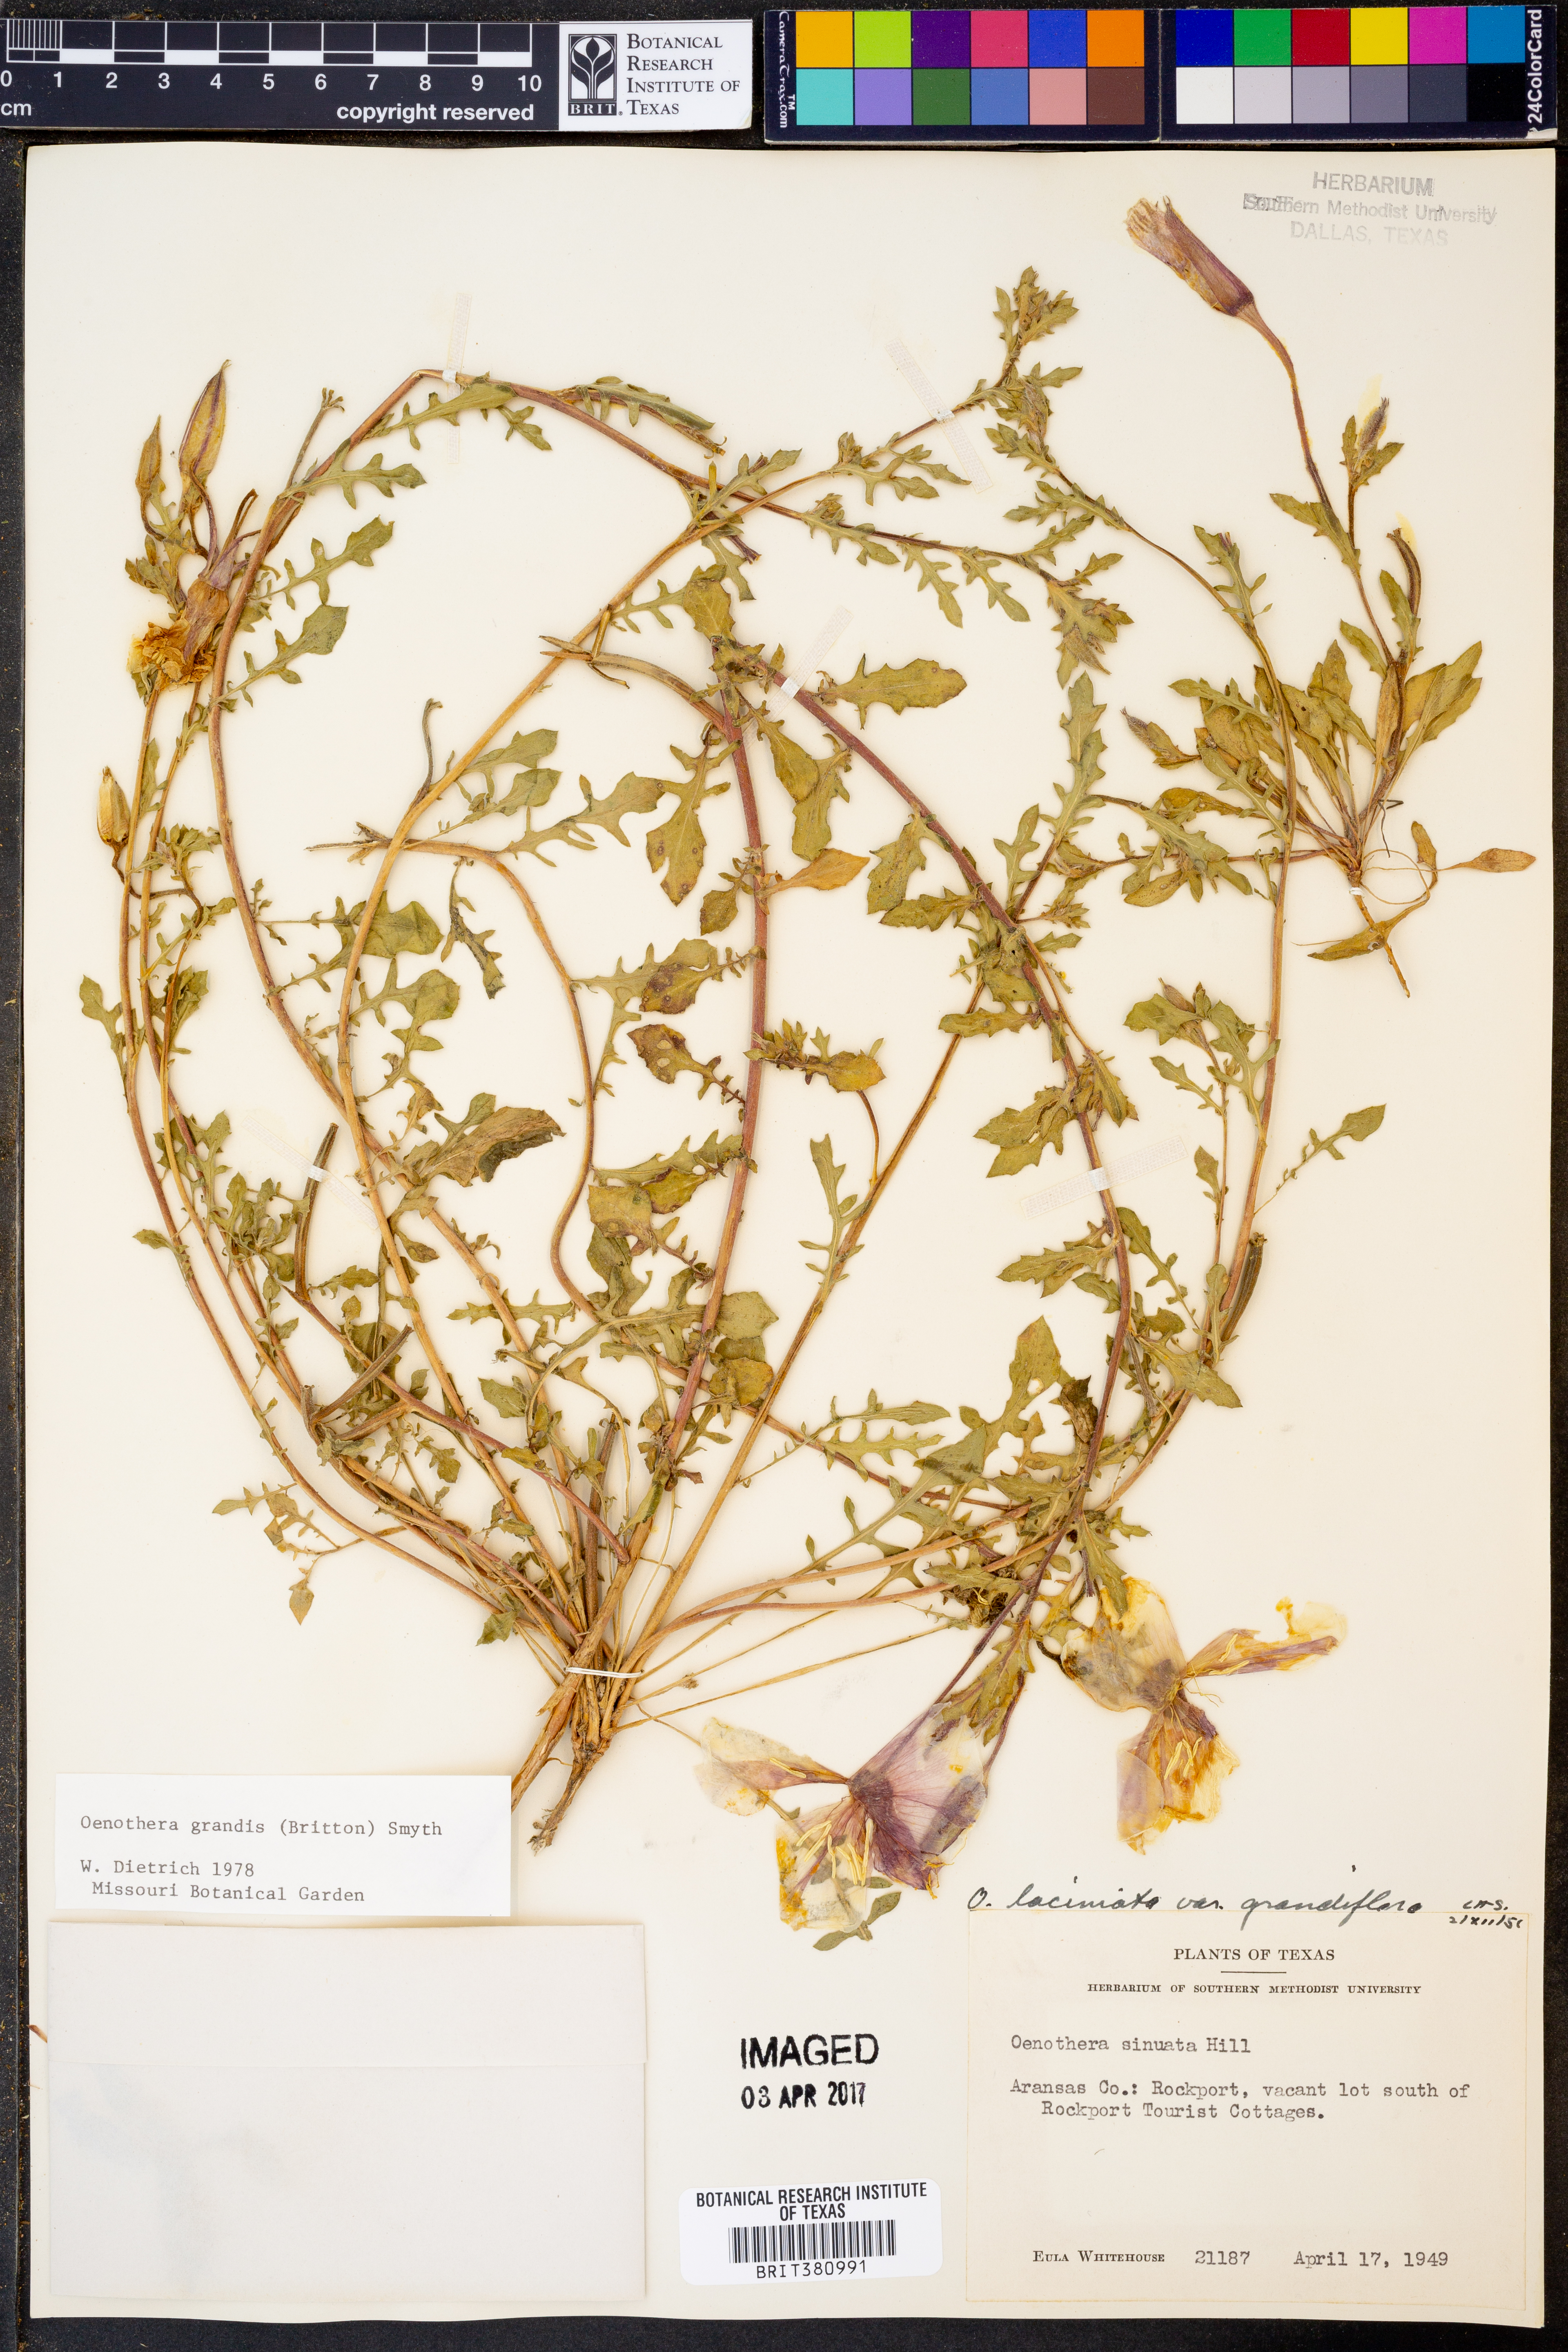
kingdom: Plantae
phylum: Tracheophyta
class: Magnoliopsida
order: Myrtales
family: Onagraceae
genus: Oenothera
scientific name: Oenothera grandis
